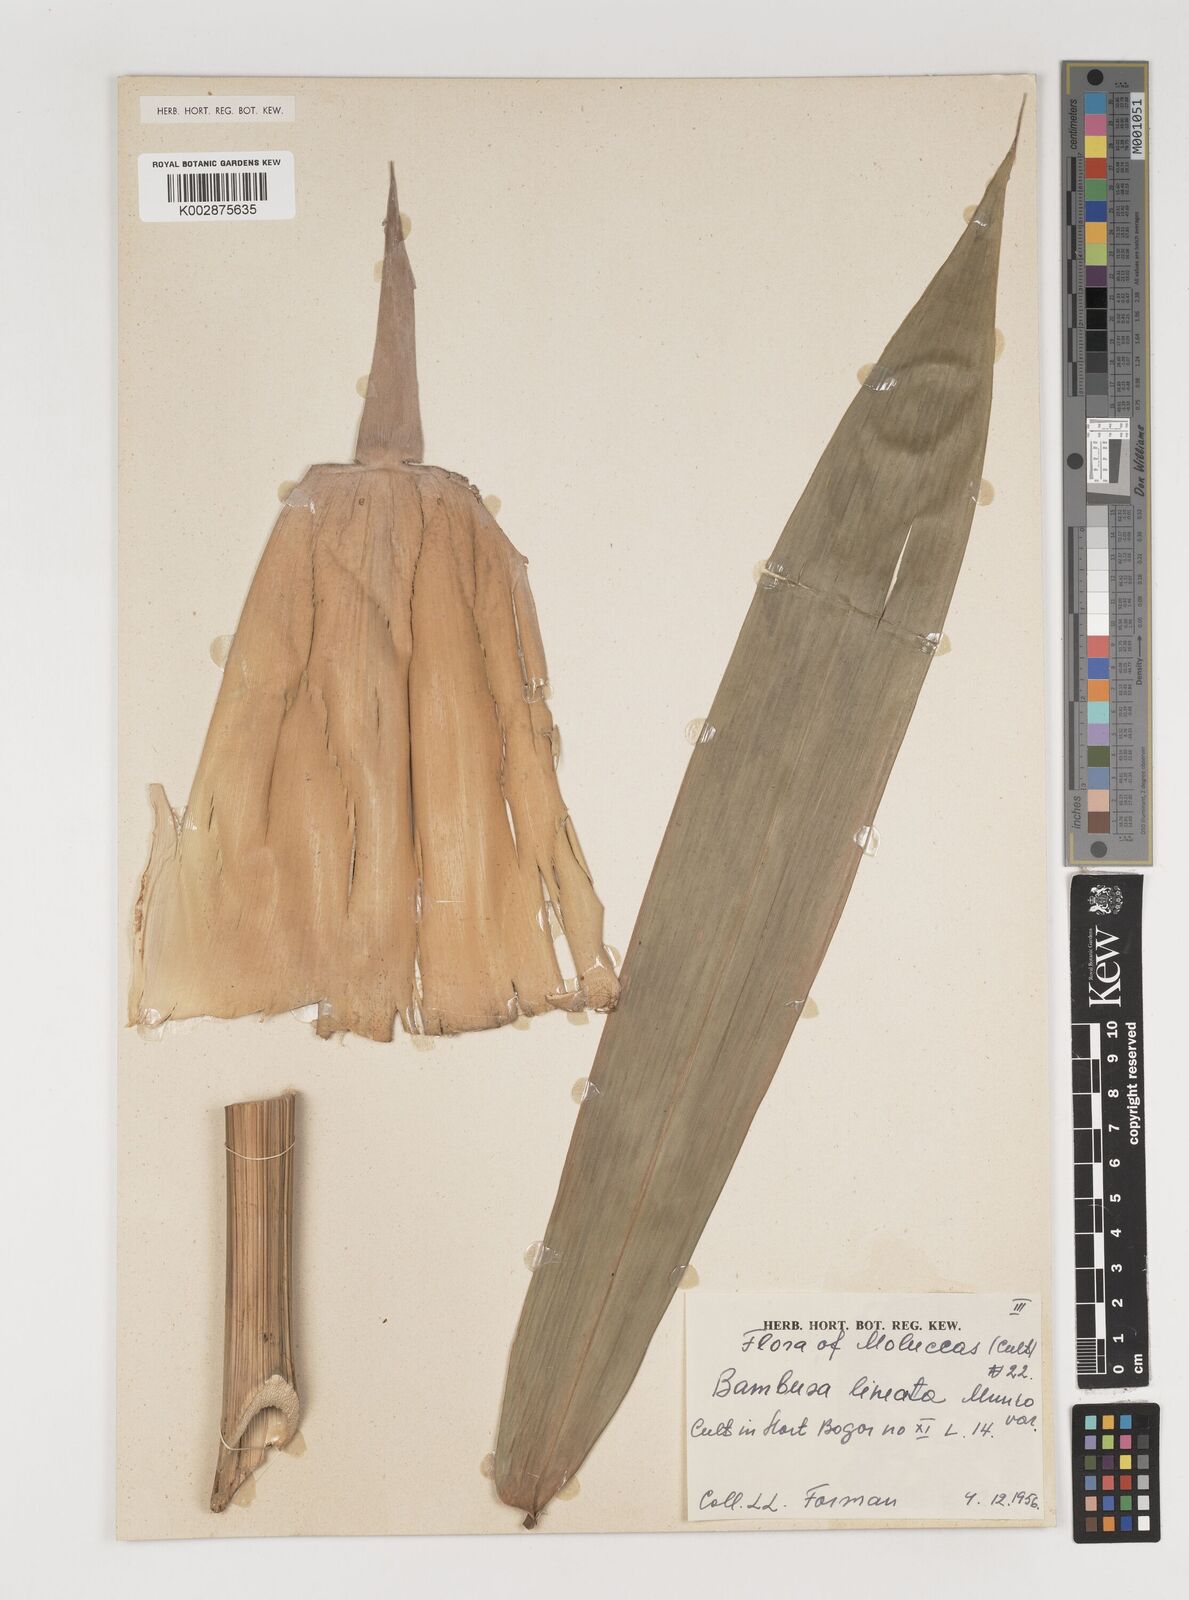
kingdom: Plantae
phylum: Tracheophyta
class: Liliopsida
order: Poales
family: Poaceae
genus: Neololeba
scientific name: Neololeba atra
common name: Cape bamboo
